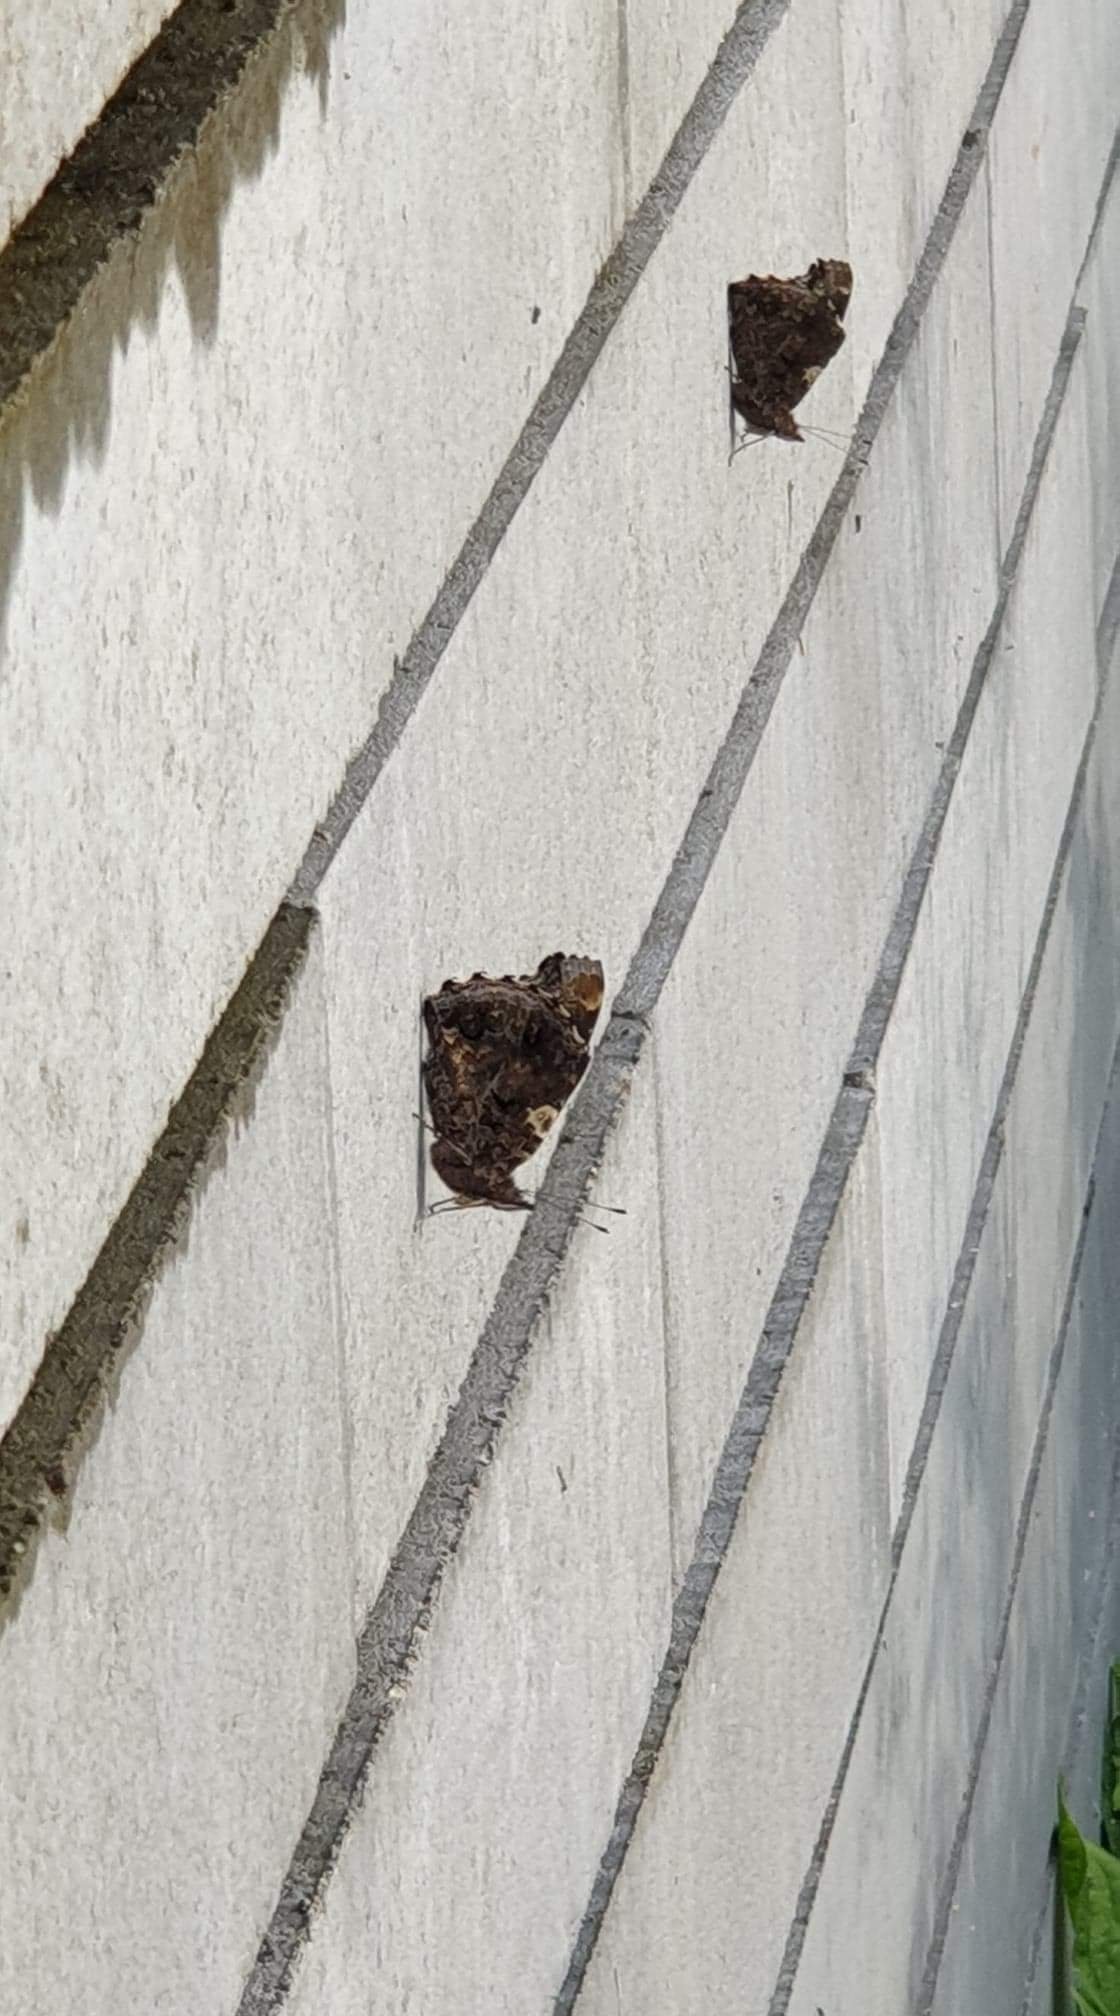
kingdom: Animalia
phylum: Arthropoda
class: Insecta
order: Lepidoptera
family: Nymphalidae
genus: Vanessa
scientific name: Vanessa atalanta
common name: Admiral
